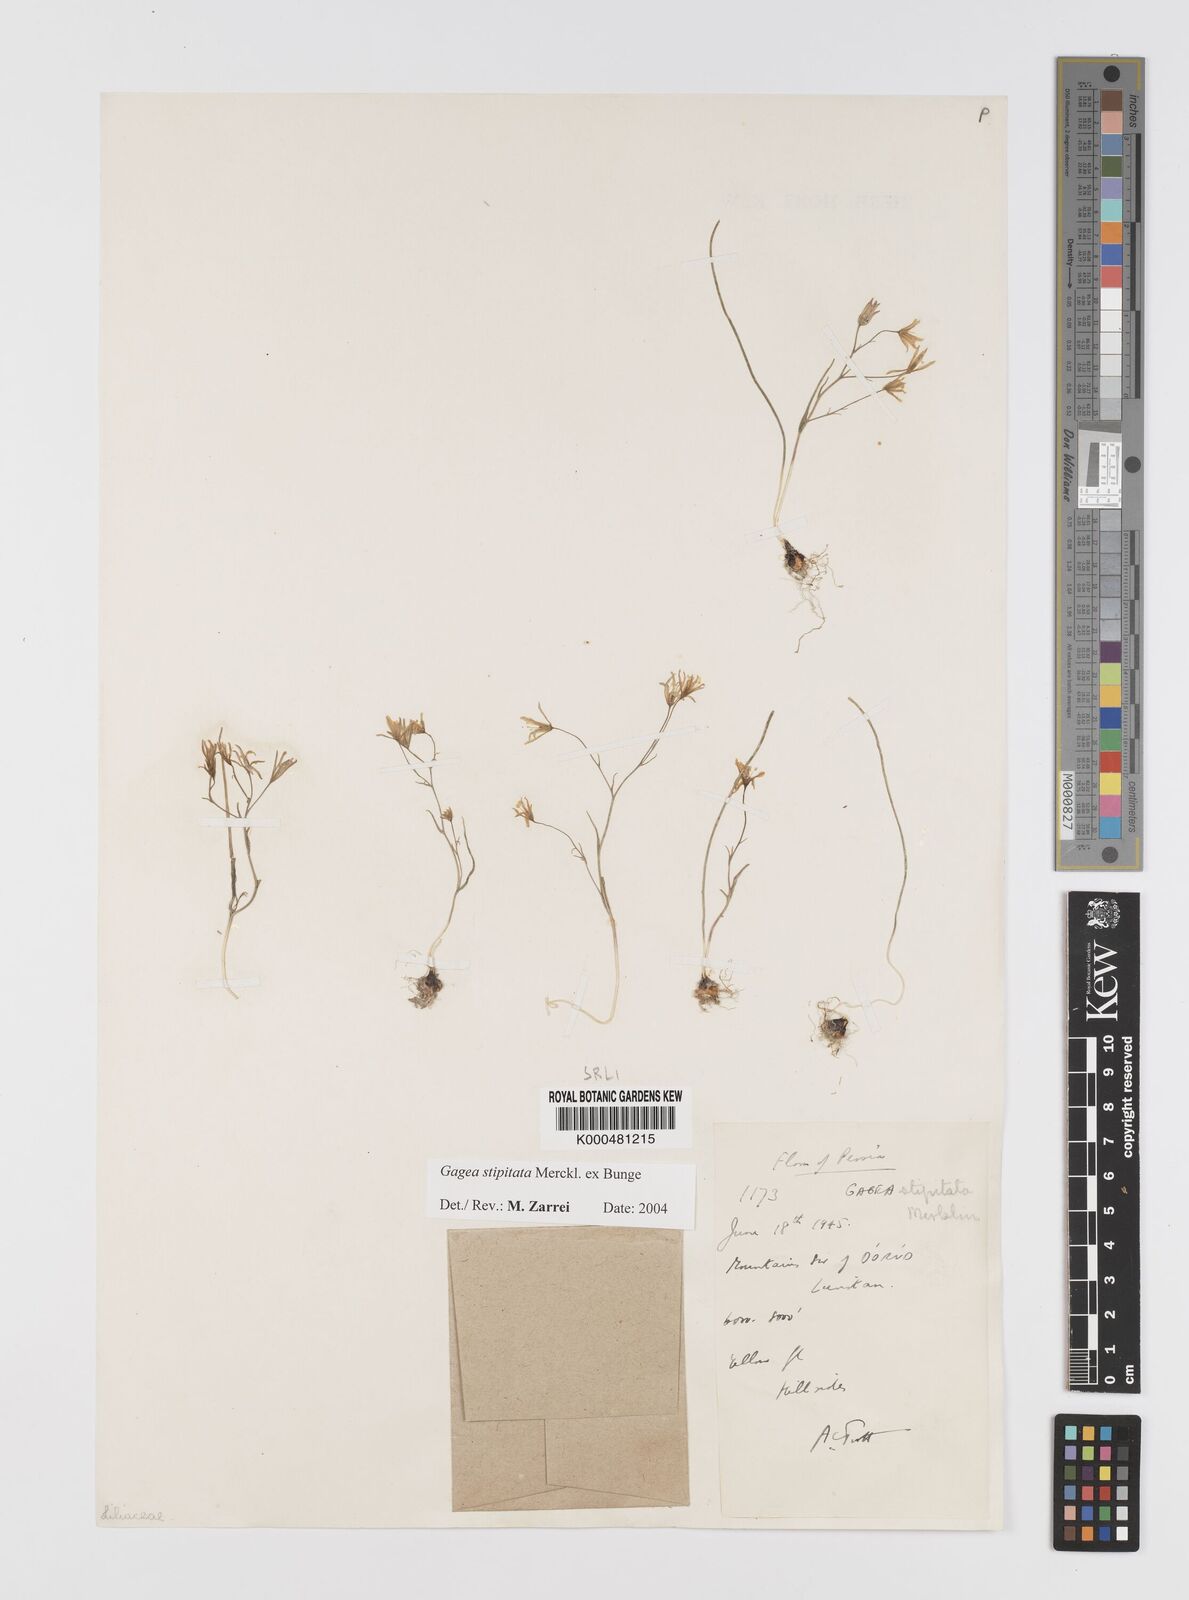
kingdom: Plantae
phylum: Tracheophyta
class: Liliopsida
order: Liliales
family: Liliaceae
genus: Gagea
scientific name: Gagea kunawurensis
